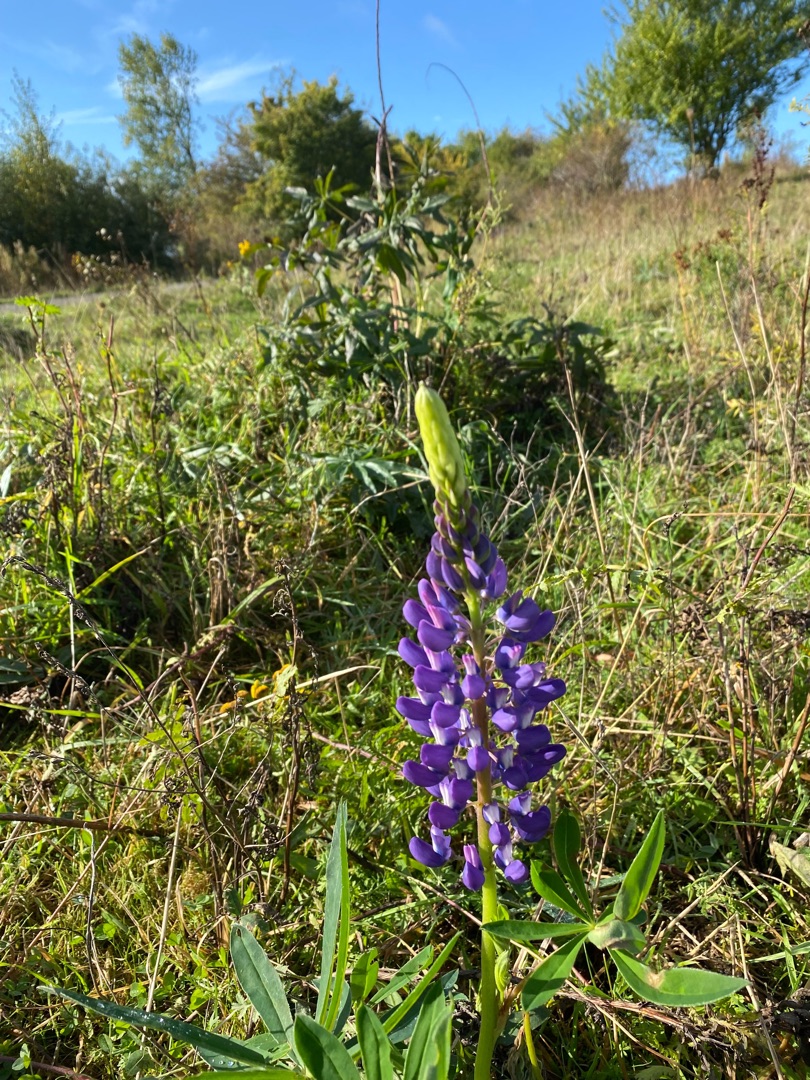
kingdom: Plantae
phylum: Tracheophyta
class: Magnoliopsida
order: Fabales
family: Fabaceae
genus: Lupinus
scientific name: Lupinus polyphyllus
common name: Mangebladet lupin
